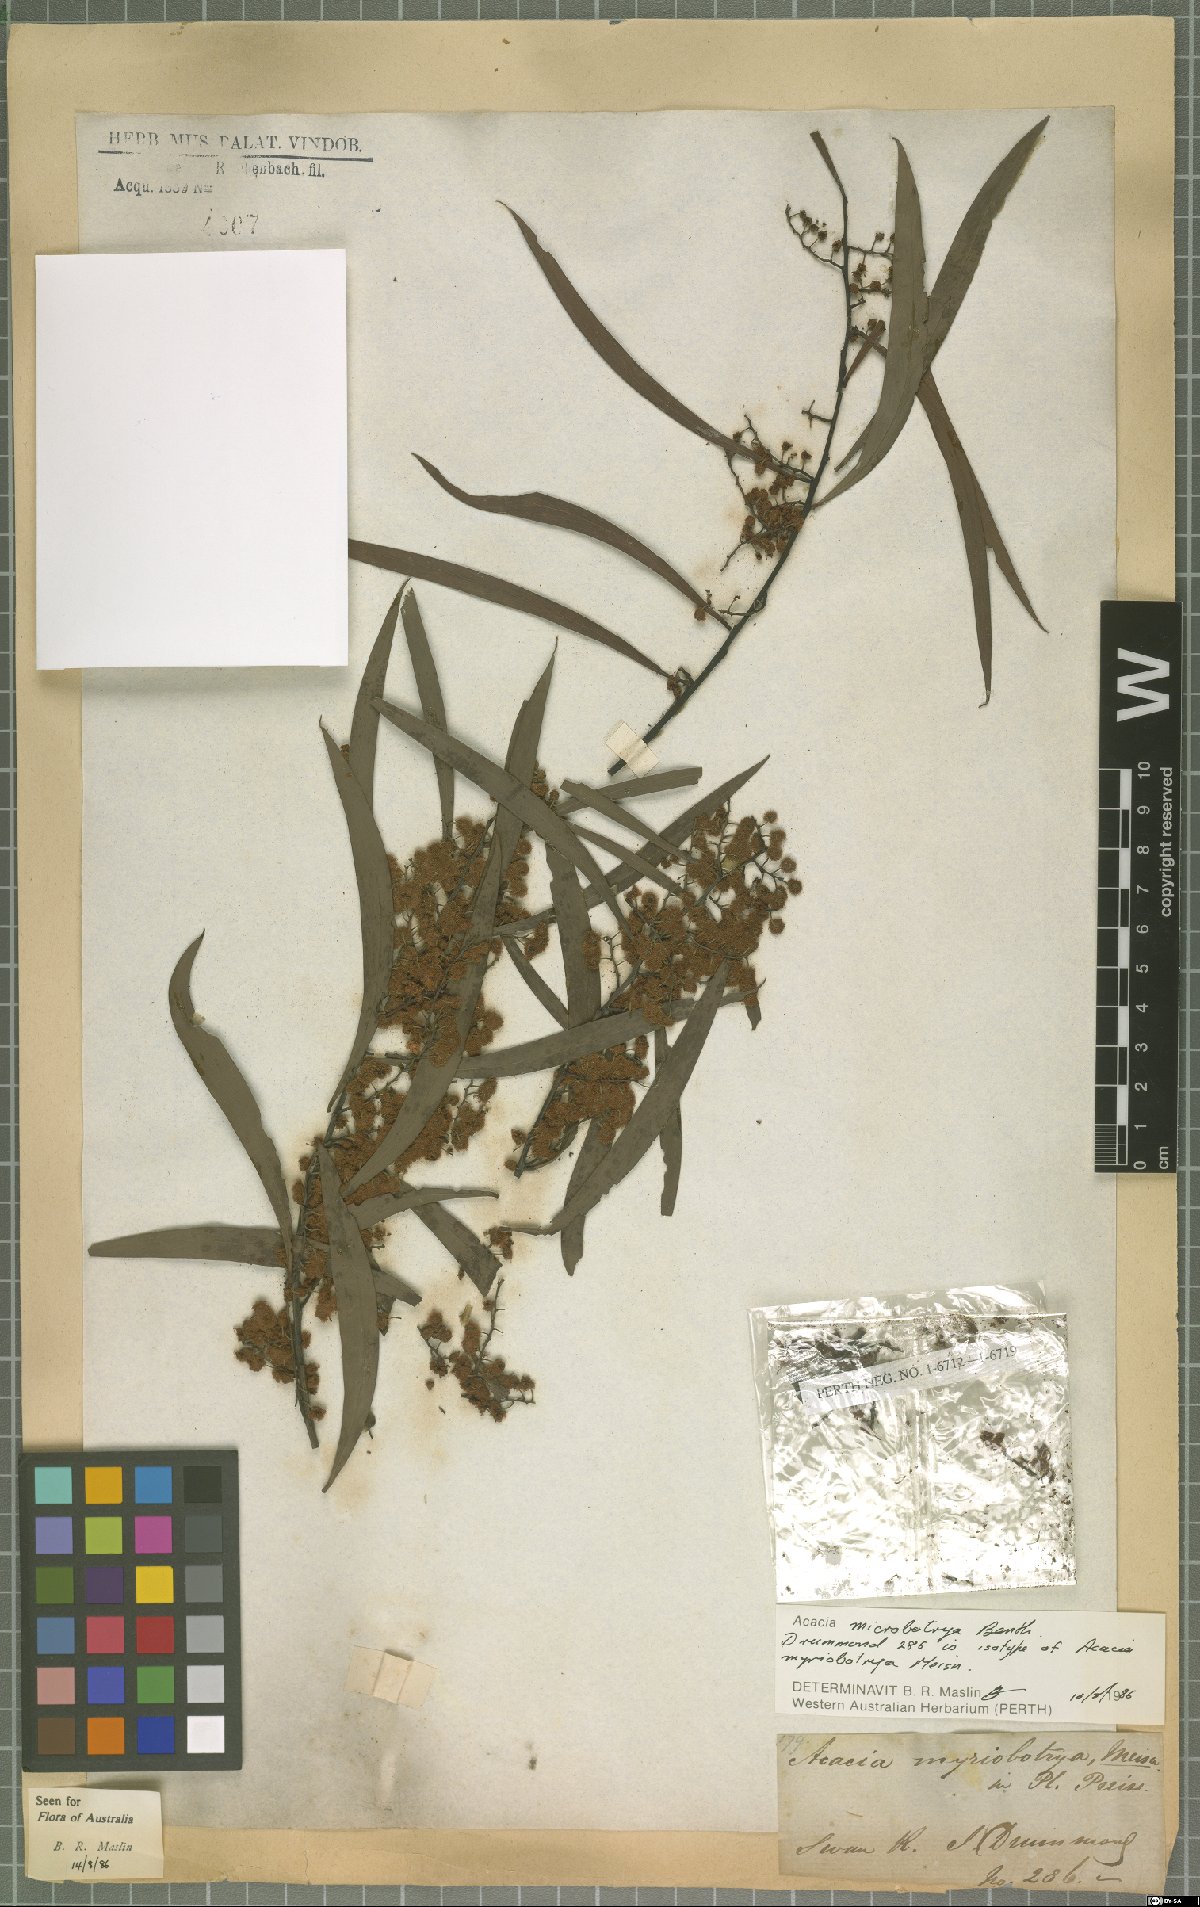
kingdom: Plantae
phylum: Tracheophyta
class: Magnoliopsida
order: Fabales
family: Fabaceae
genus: Acacia
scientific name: Acacia microbotrya
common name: Manna wattle
